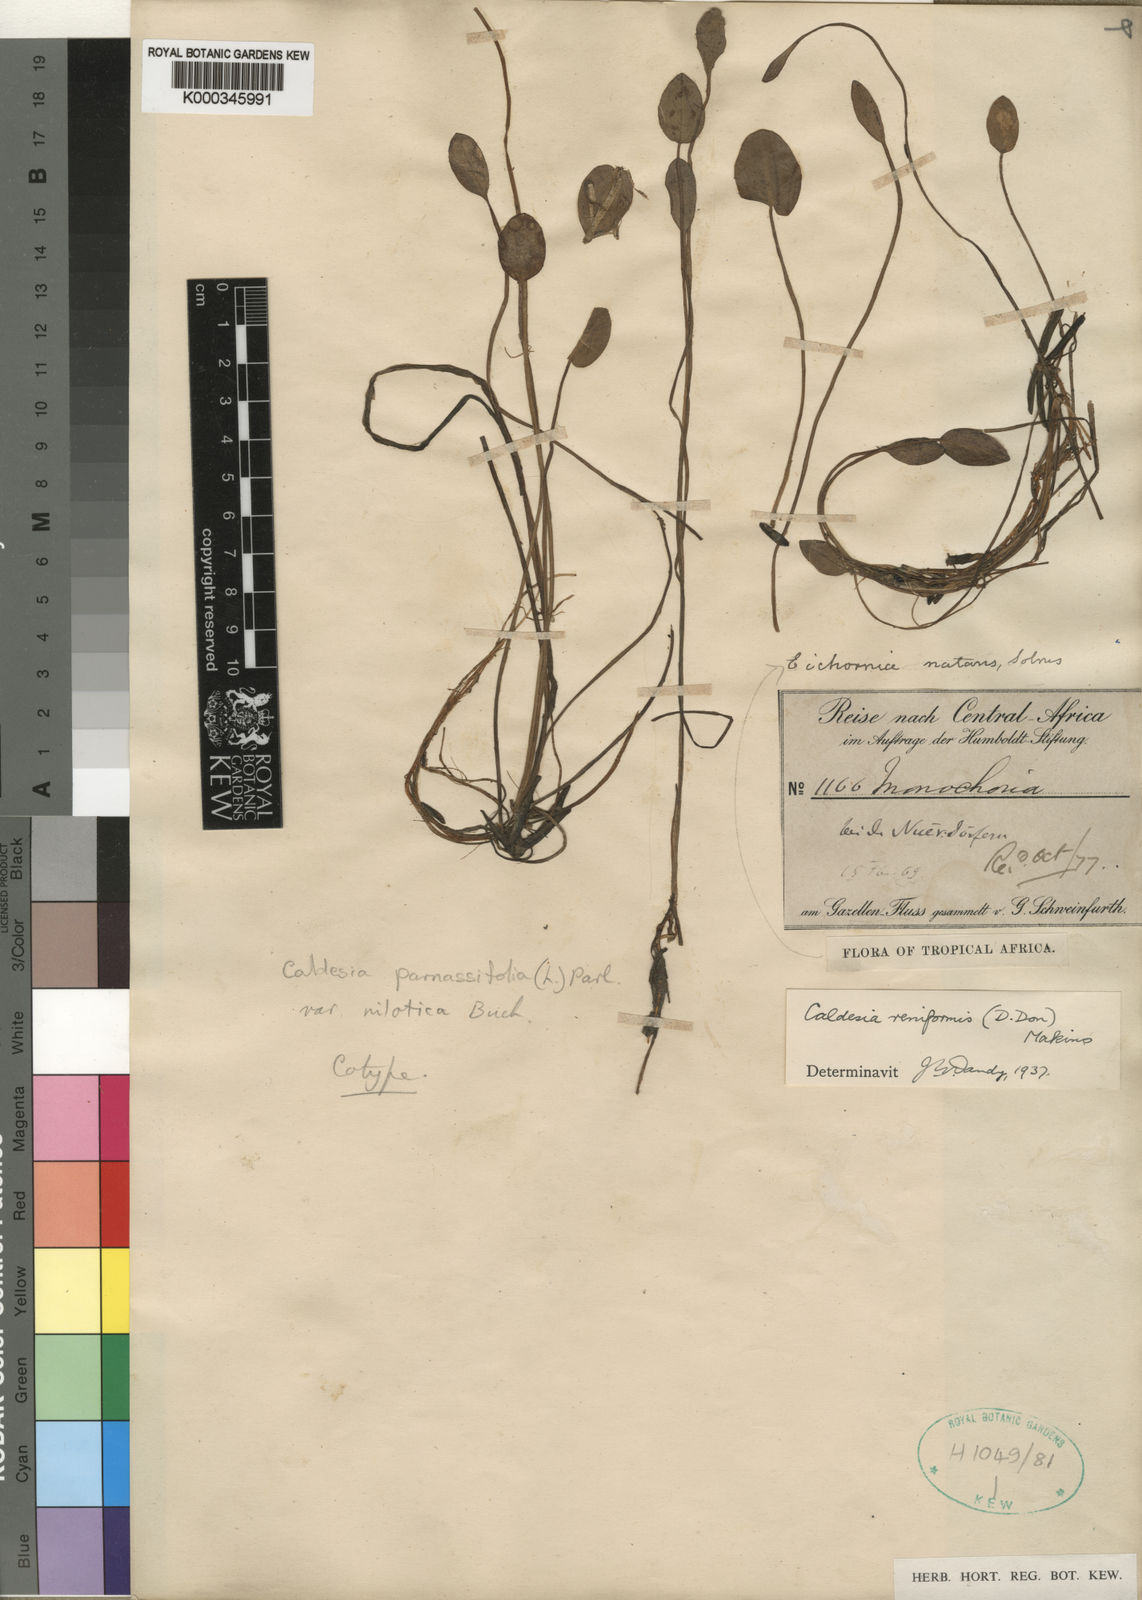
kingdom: Plantae
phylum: Tracheophyta
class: Liliopsida
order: Alismatales
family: Alismataceae
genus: Caldesia
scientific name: Caldesia parnassifolia
